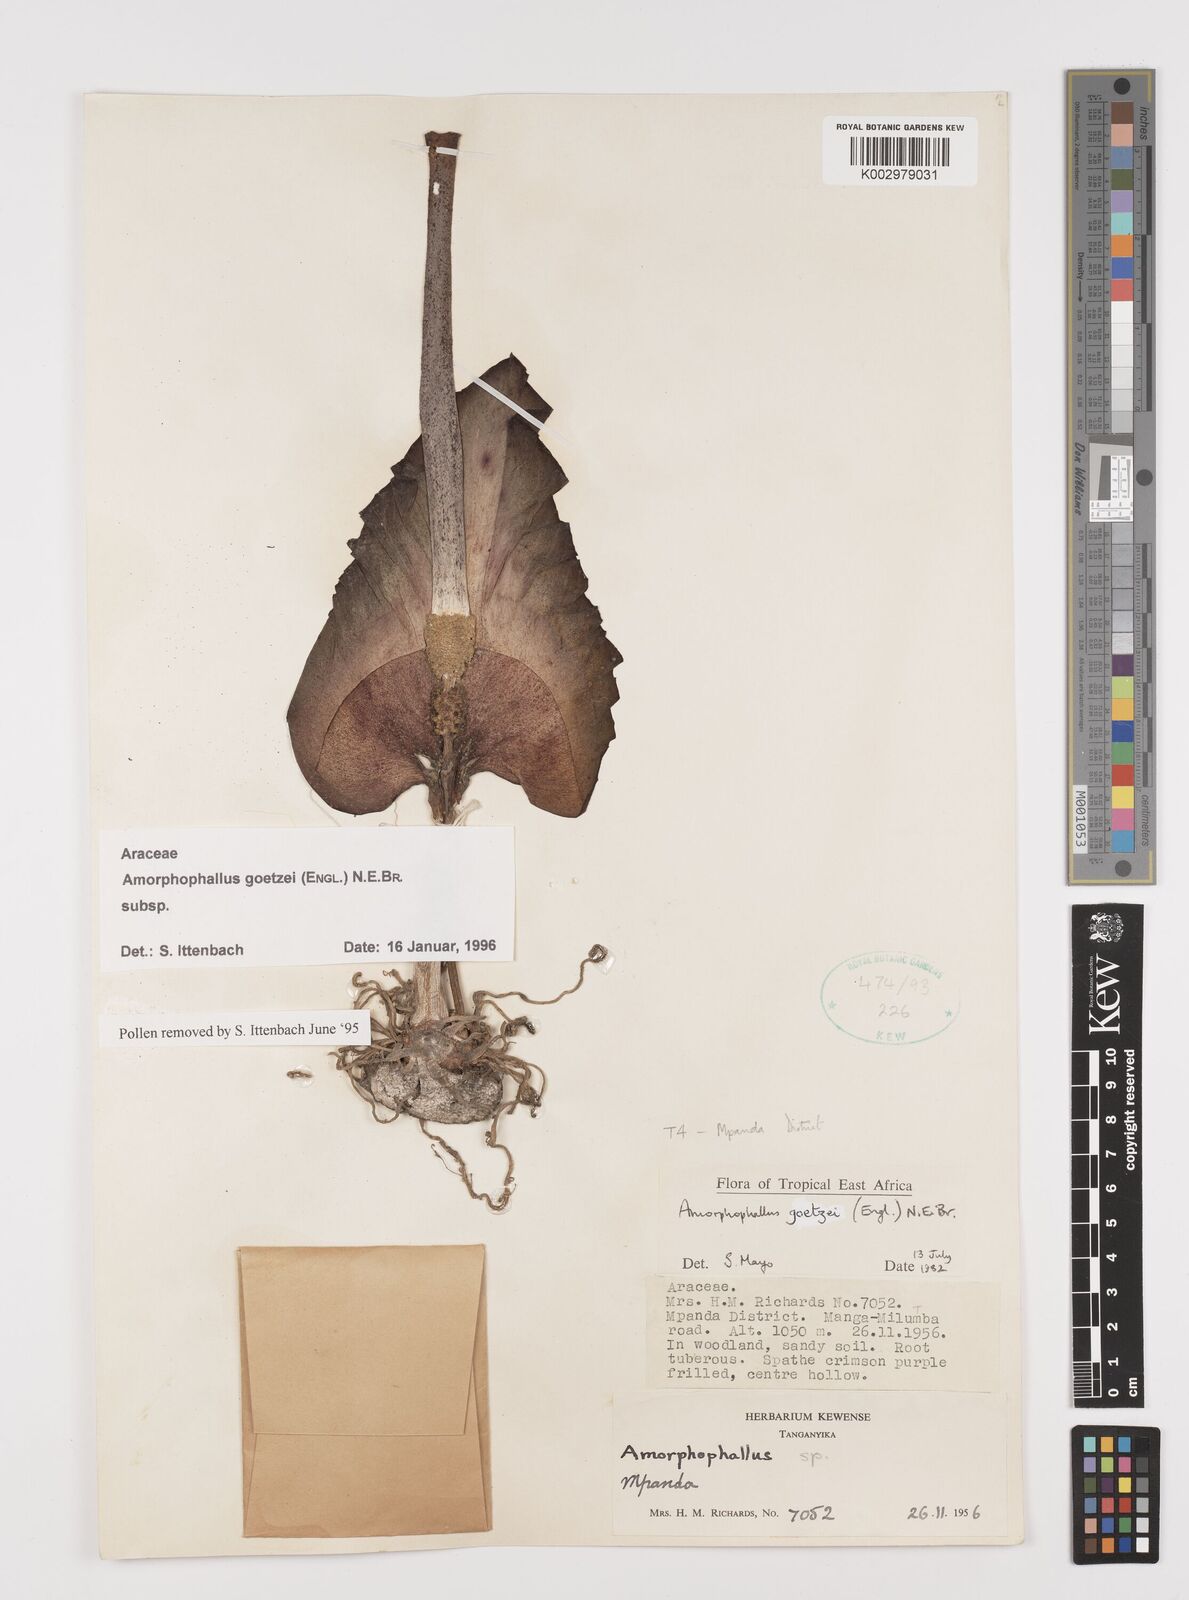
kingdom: Plantae
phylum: Tracheophyta
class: Liliopsida
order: Alismatales
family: Araceae
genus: Amorphophallus
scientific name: Amorphophallus goetzei
